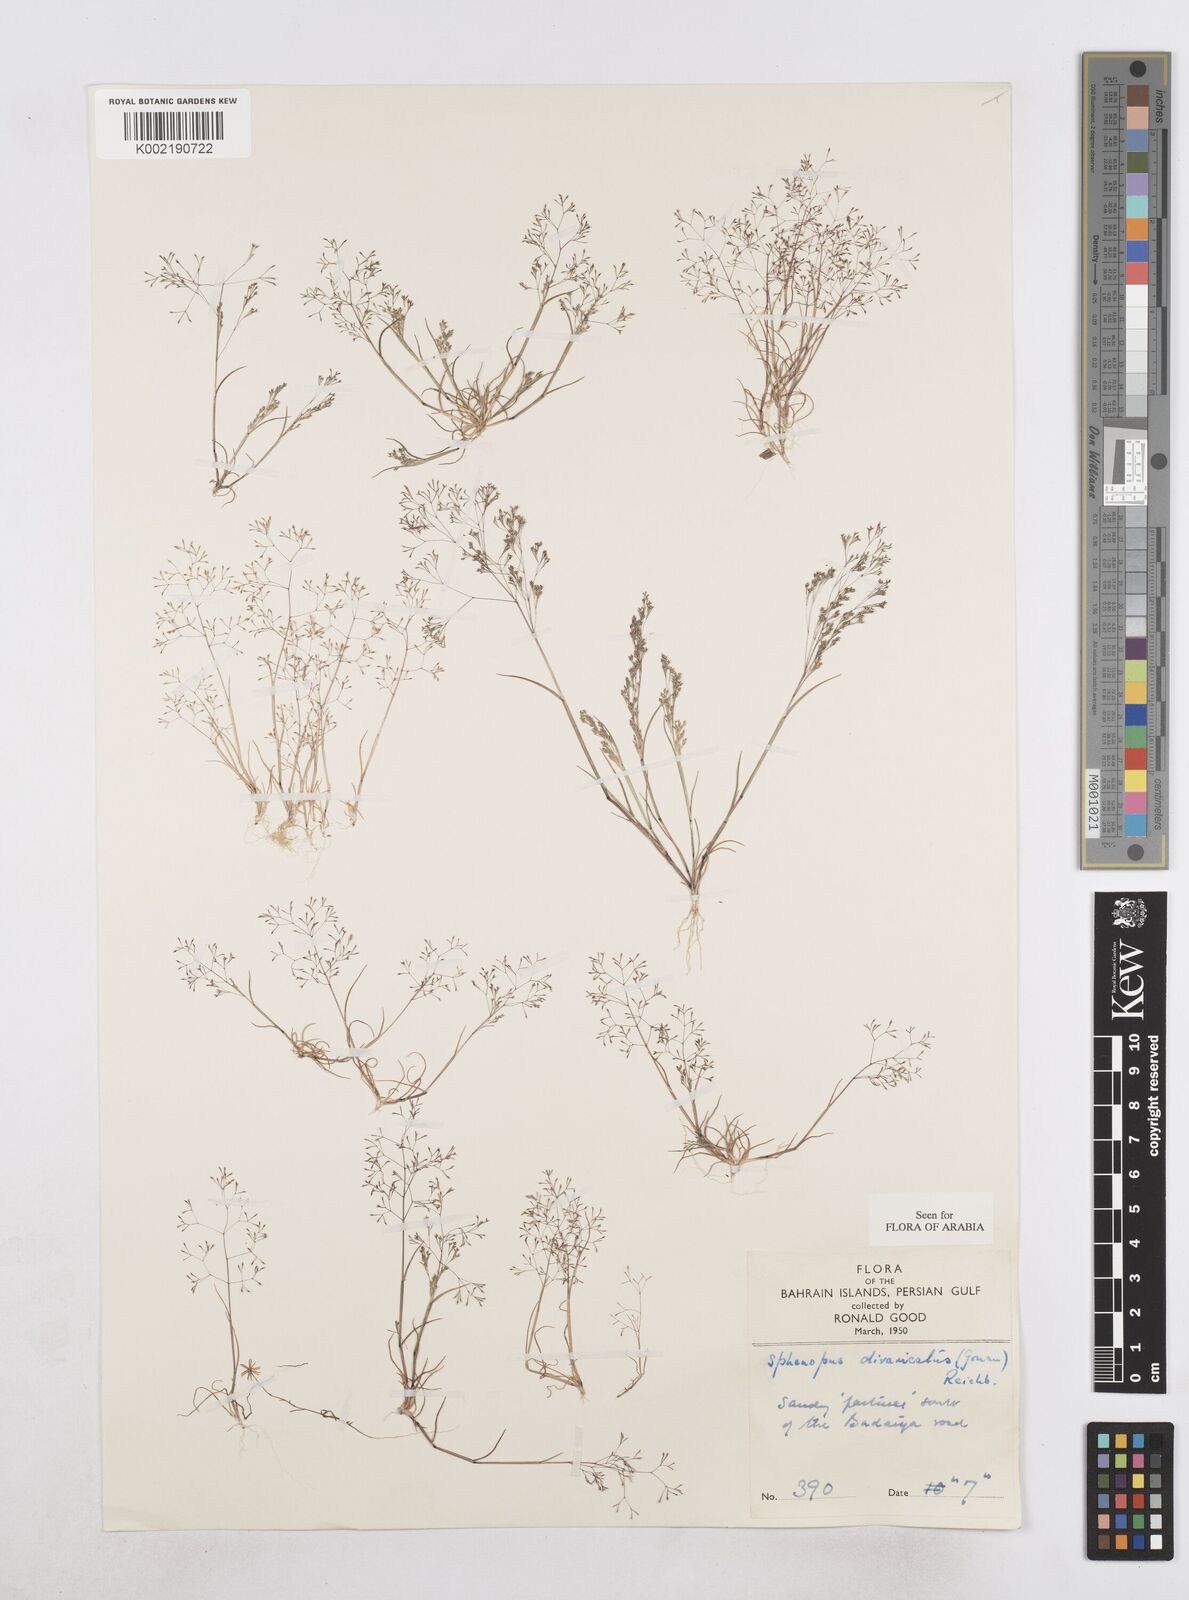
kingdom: Plantae
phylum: Tracheophyta
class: Liliopsida
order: Poales
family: Poaceae
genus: Sphenopus
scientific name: Sphenopus divaricatus
